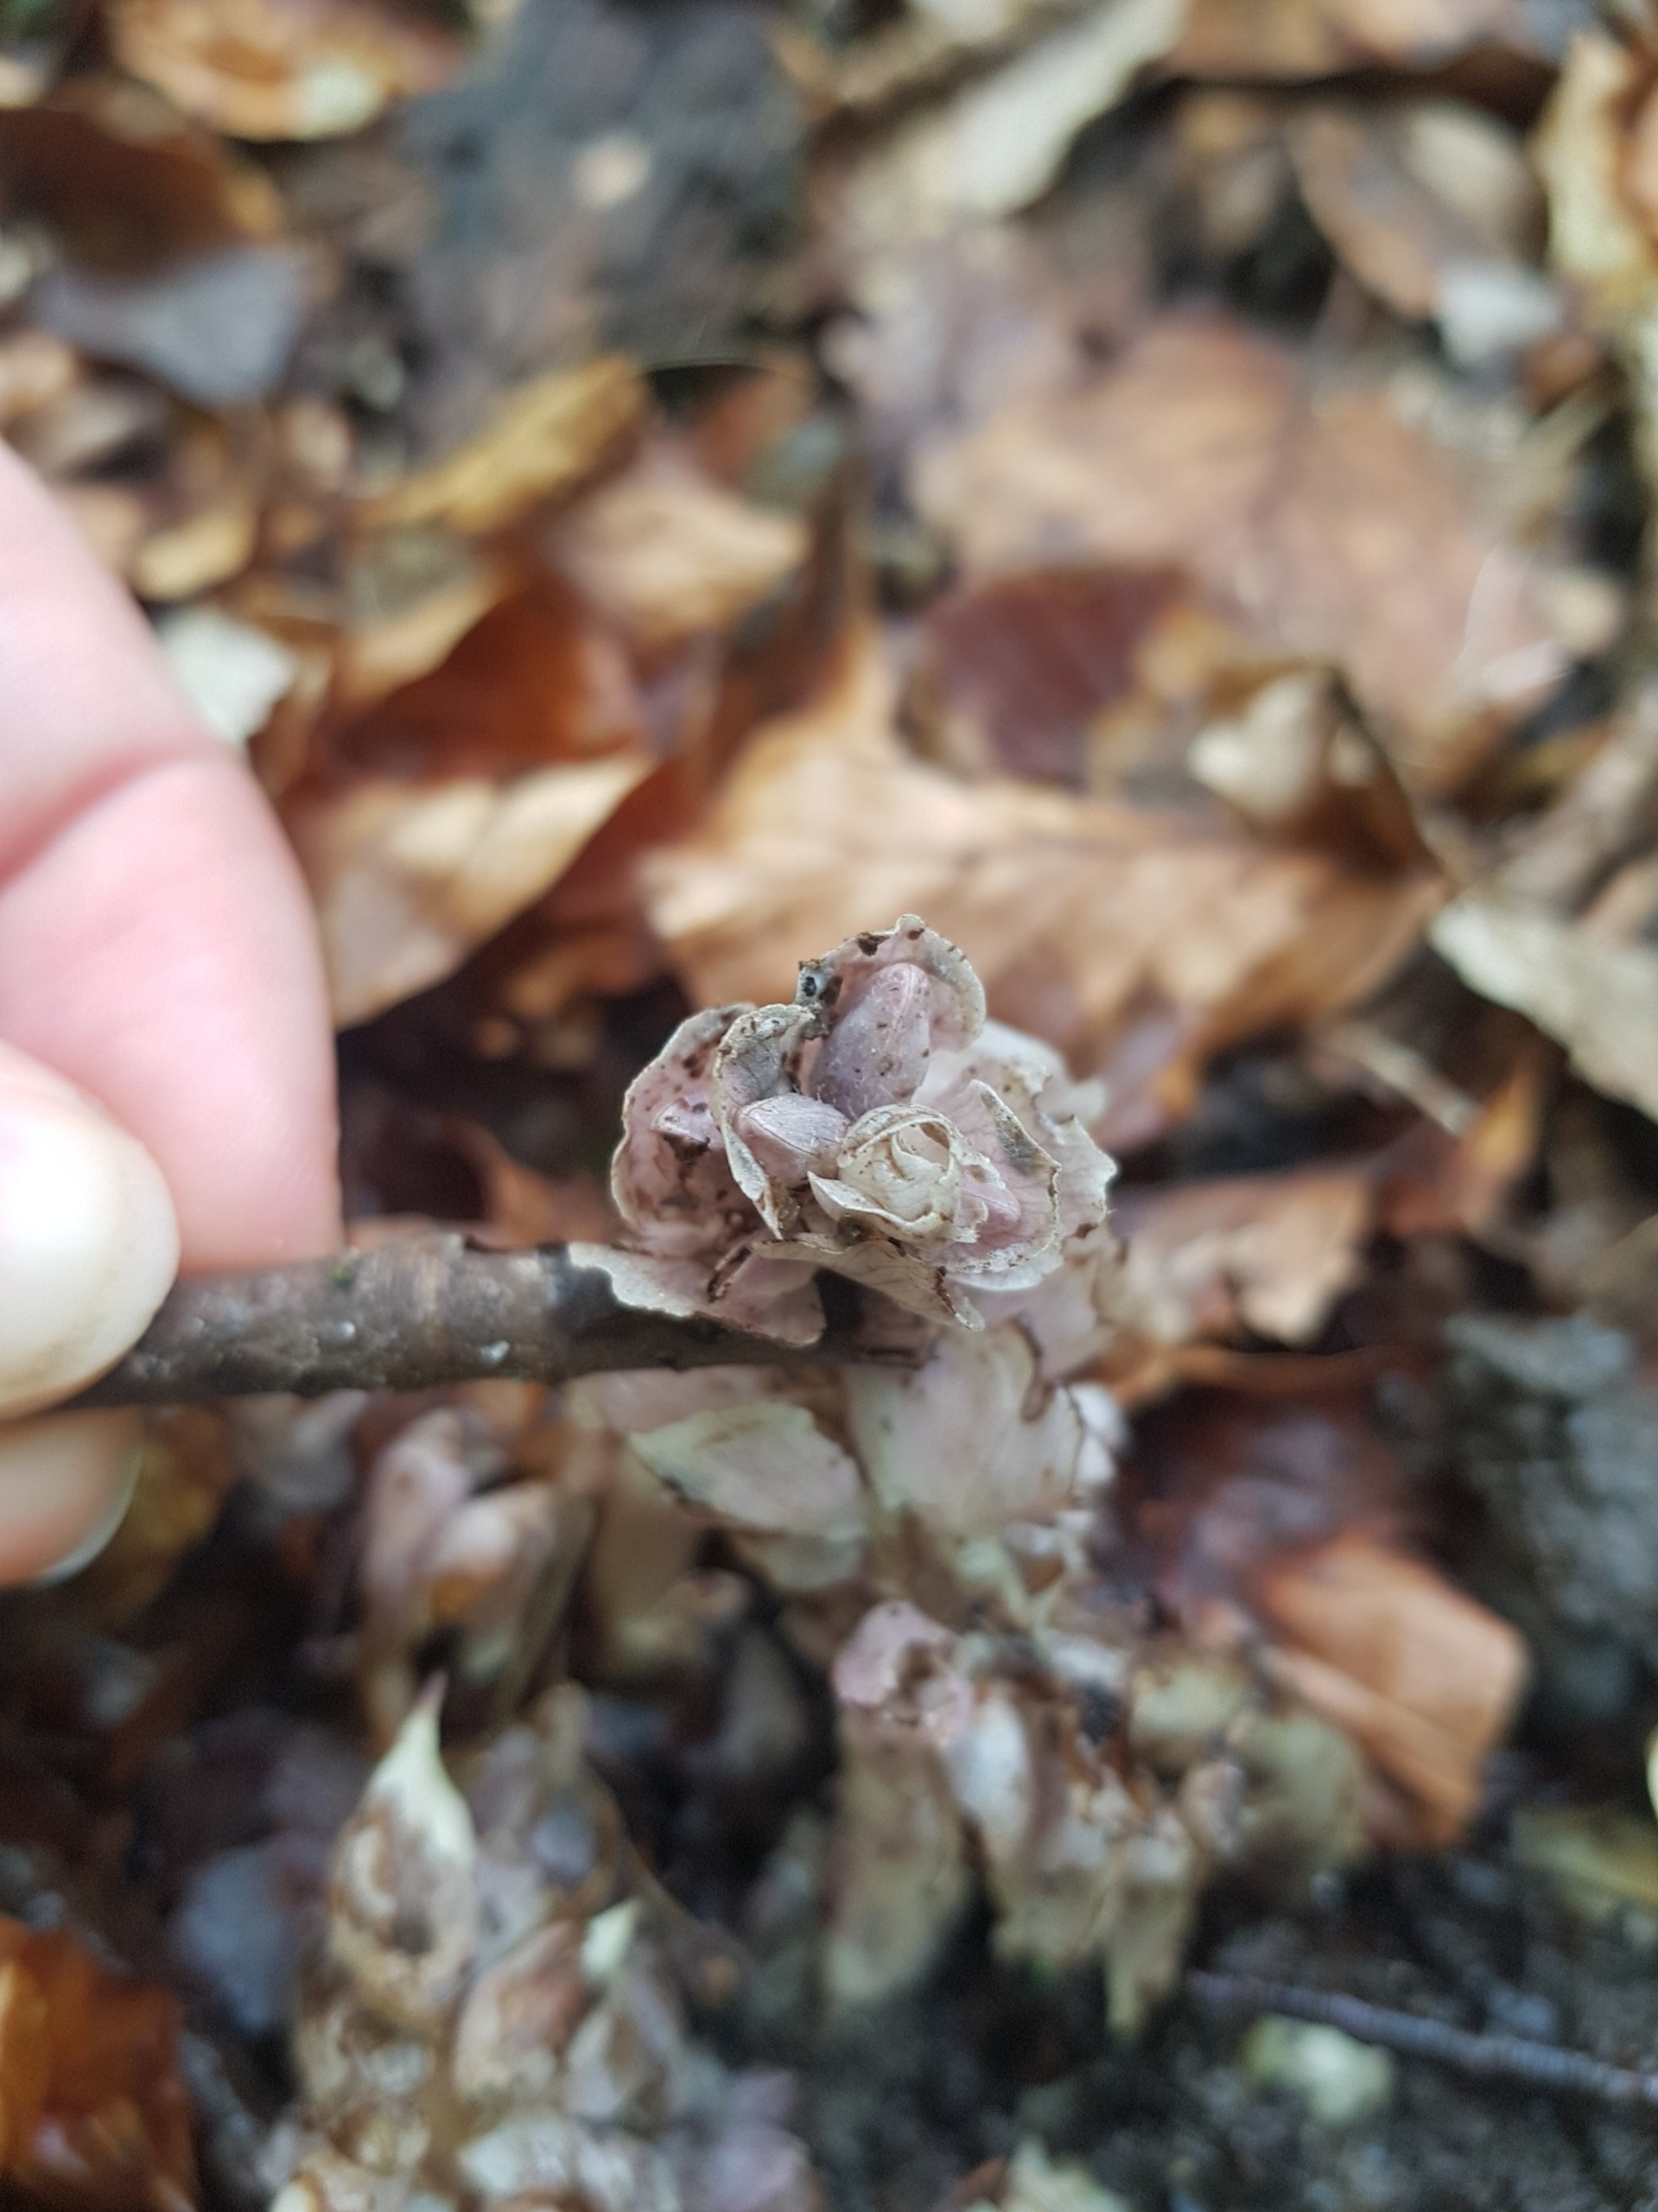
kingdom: Plantae
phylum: Tracheophyta
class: Magnoliopsida
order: Lamiales
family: Orobanchaceae
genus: Lathraea
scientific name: Lathraea squamaria
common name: Skælrod
